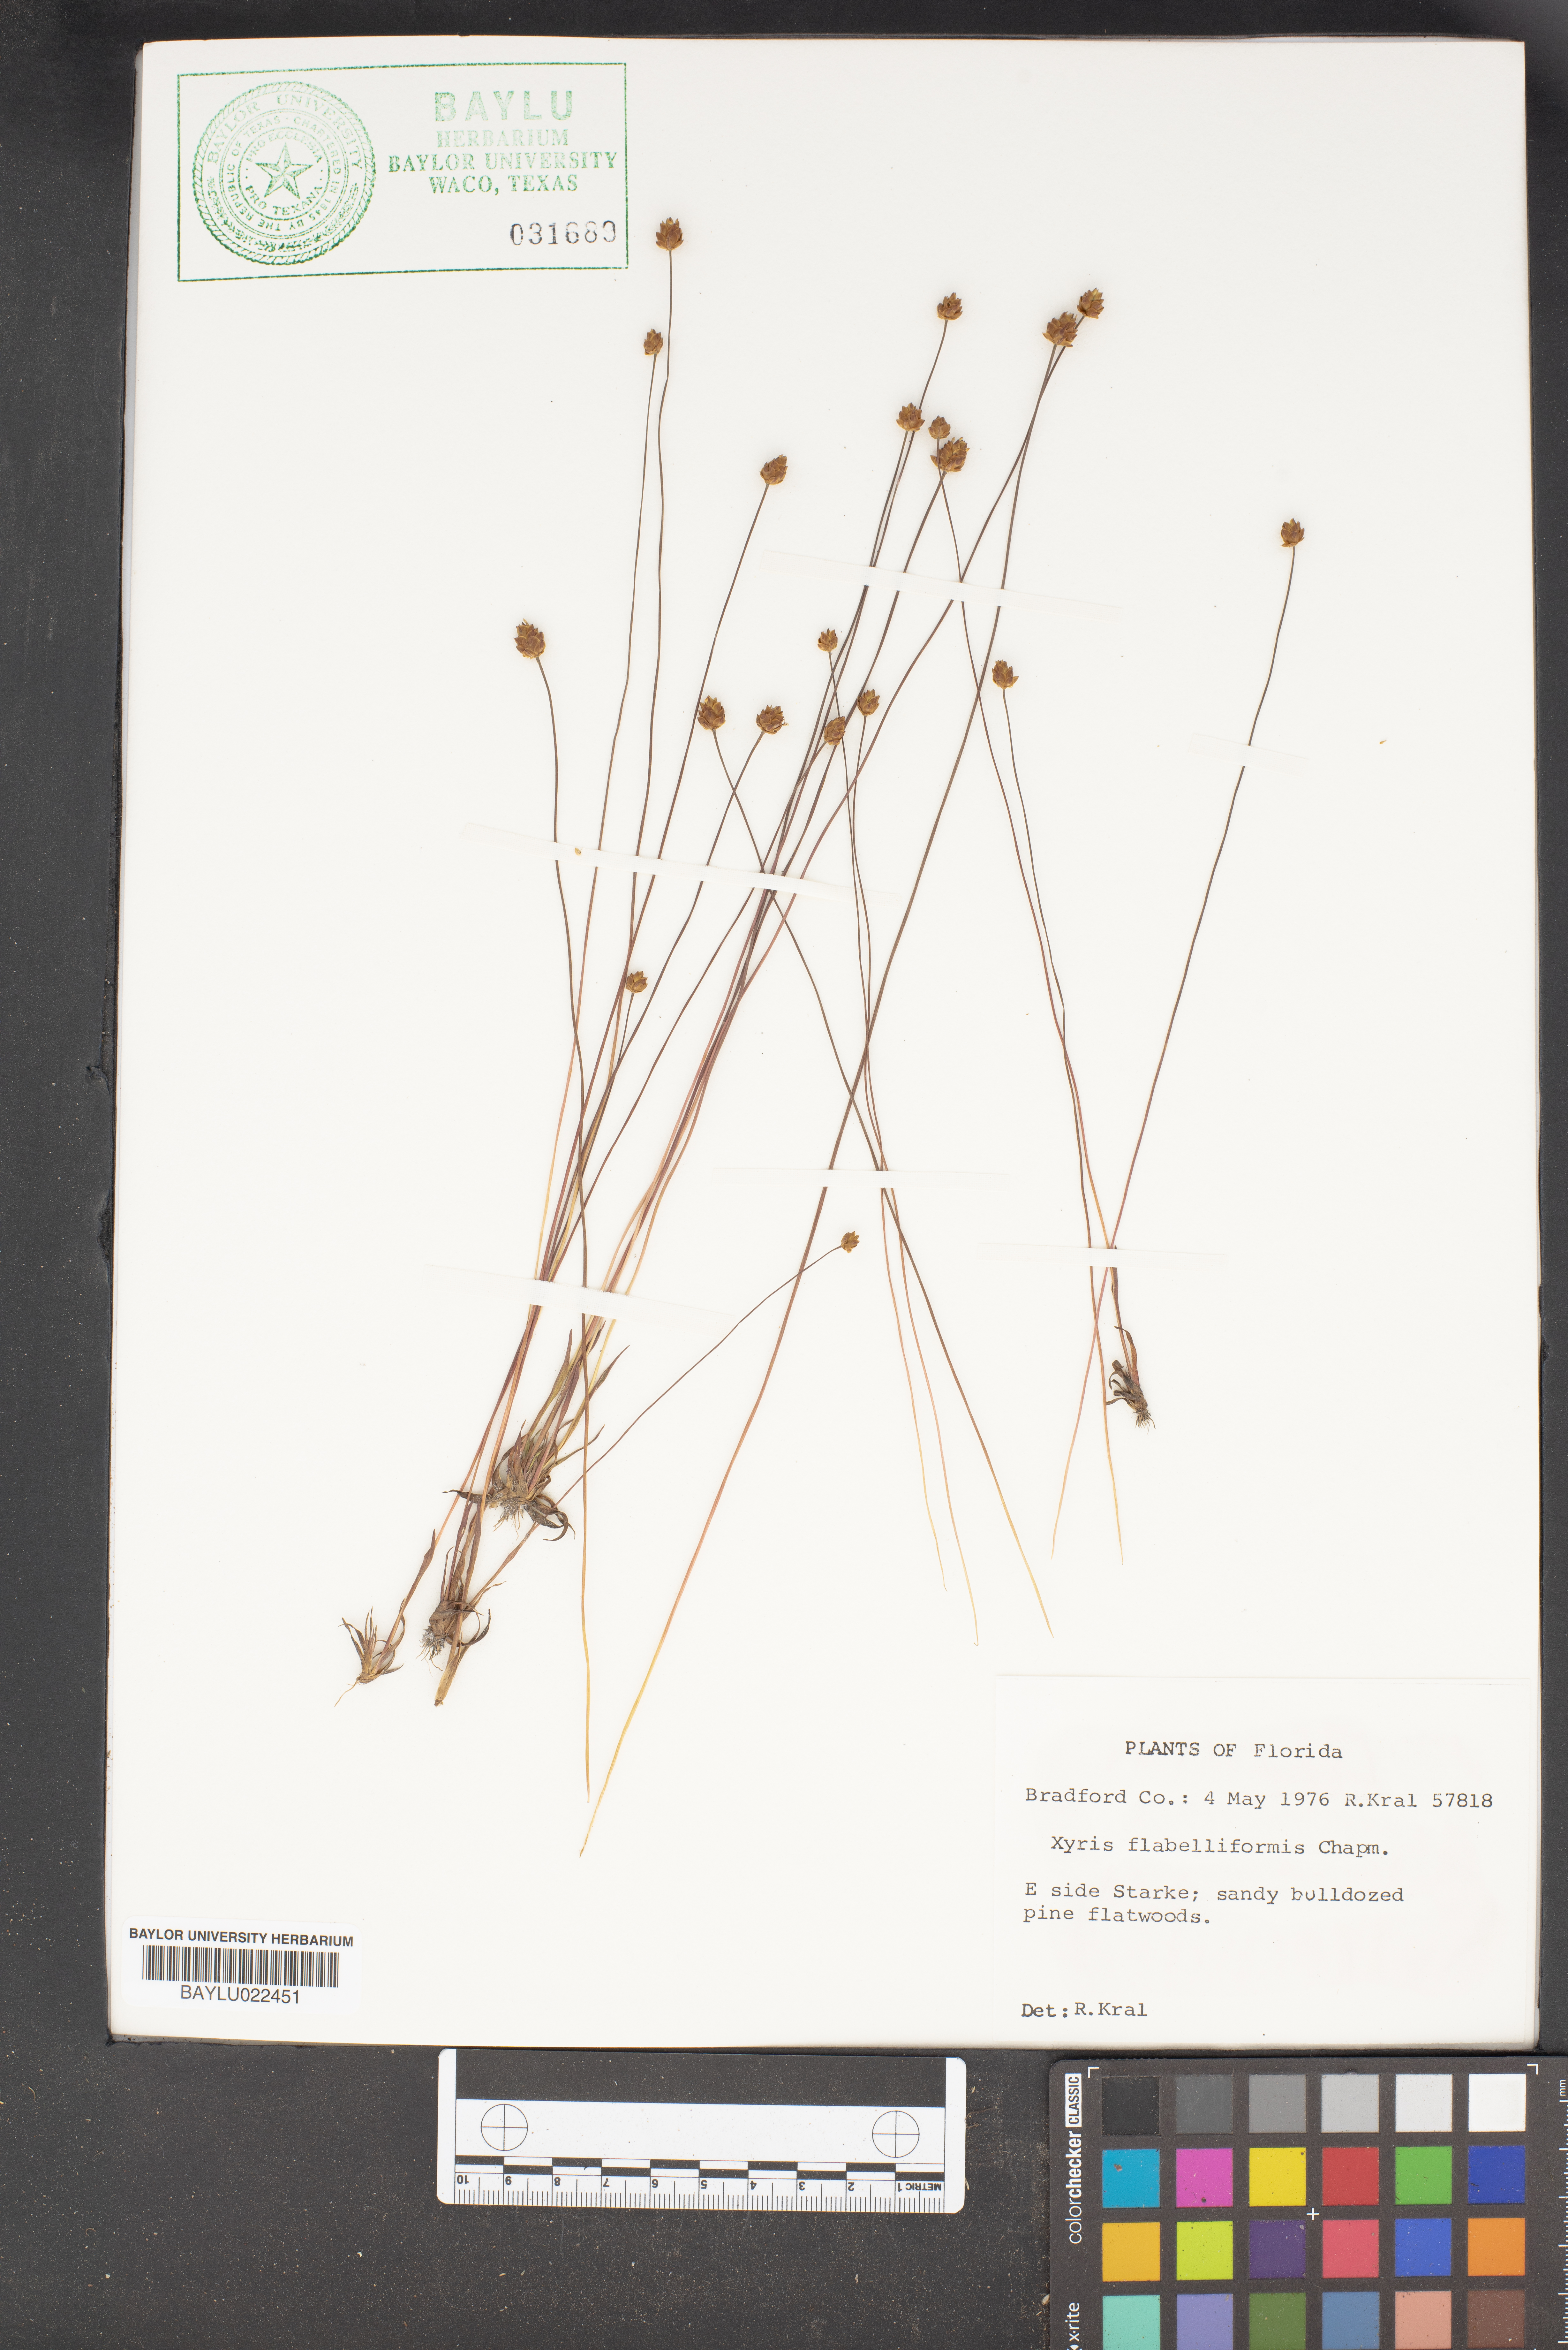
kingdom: Plantae
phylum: Tracheophyta
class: Liliopsida
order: Poales
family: Xyridaceae
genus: Xyris
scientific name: Xyris flabelliformis
